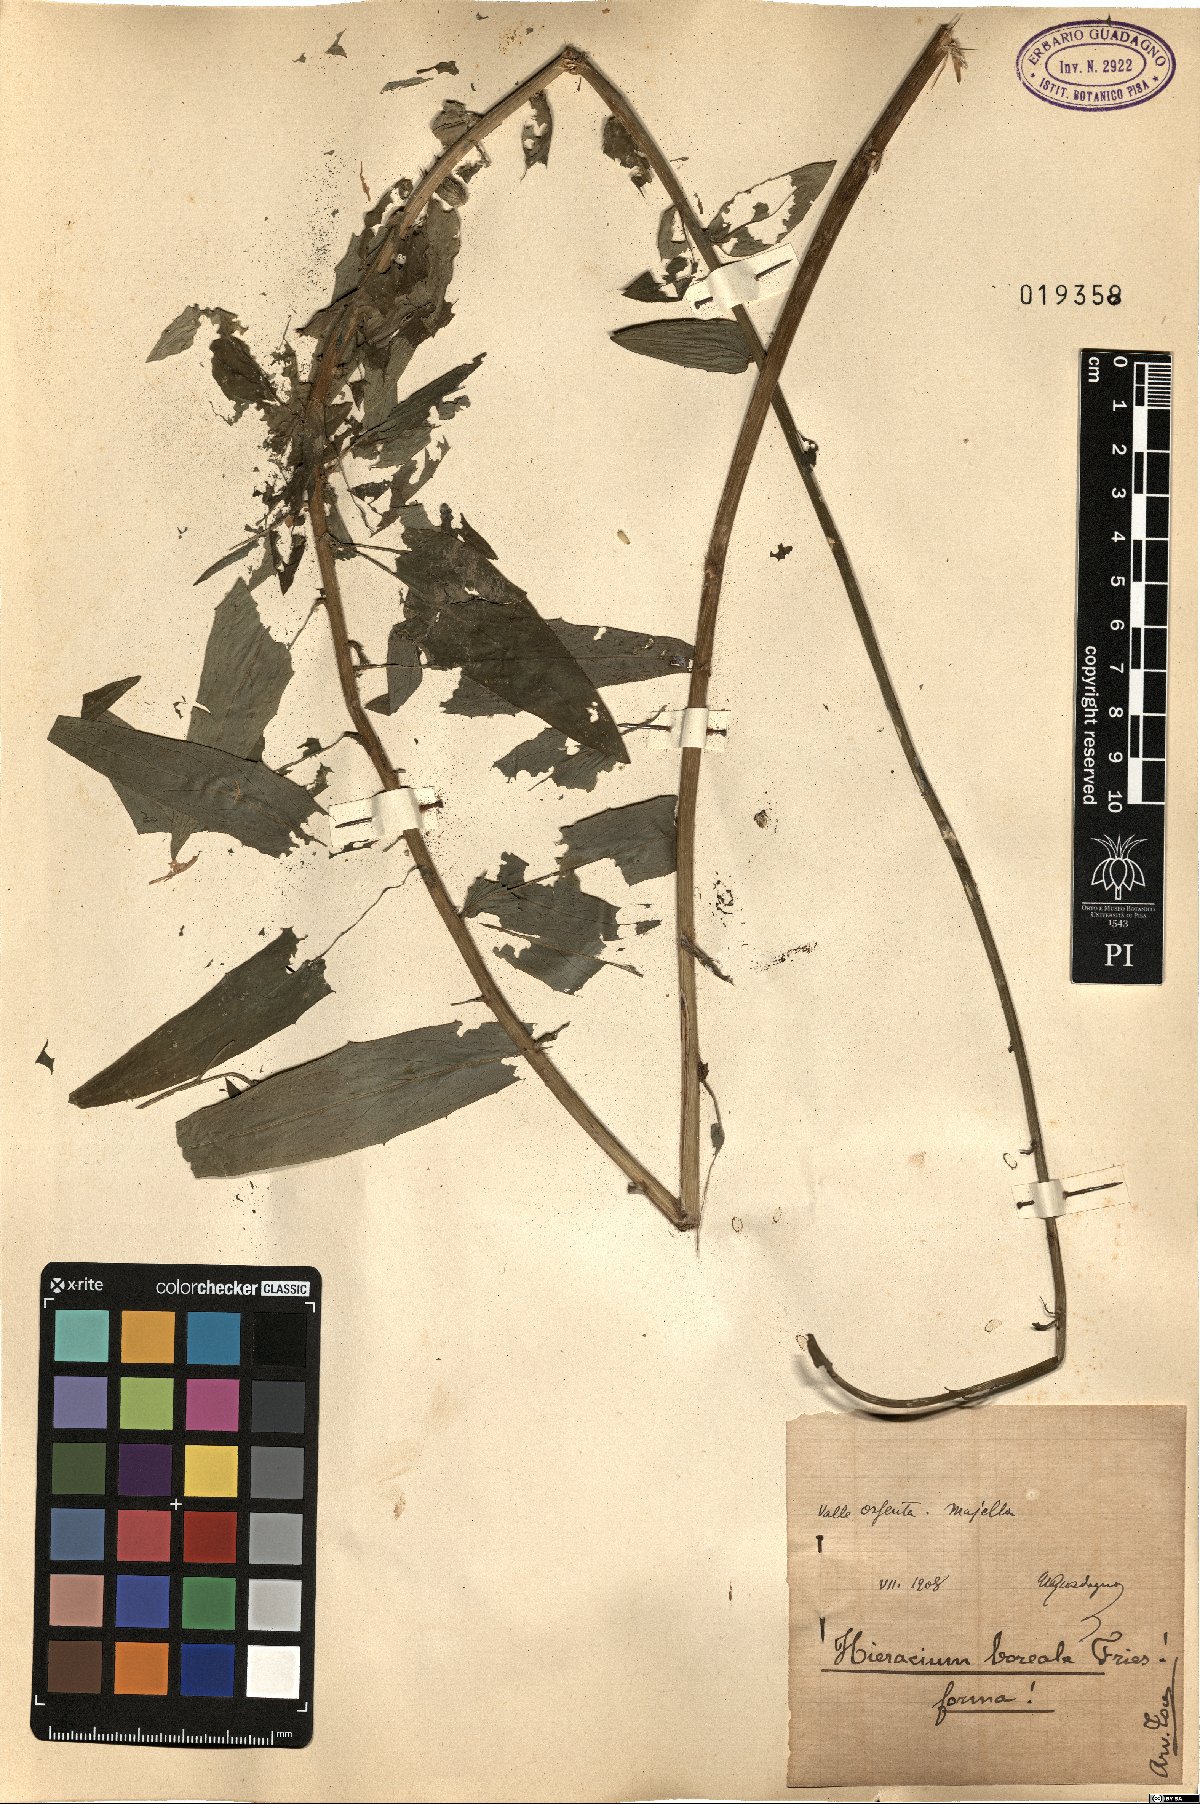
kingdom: Plantae
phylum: Tracheophyta
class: Magnoliopsida
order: Asterales
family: Asteraceae
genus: Hieracium
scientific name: Hieracium sabaudum
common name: New england hawkweed
